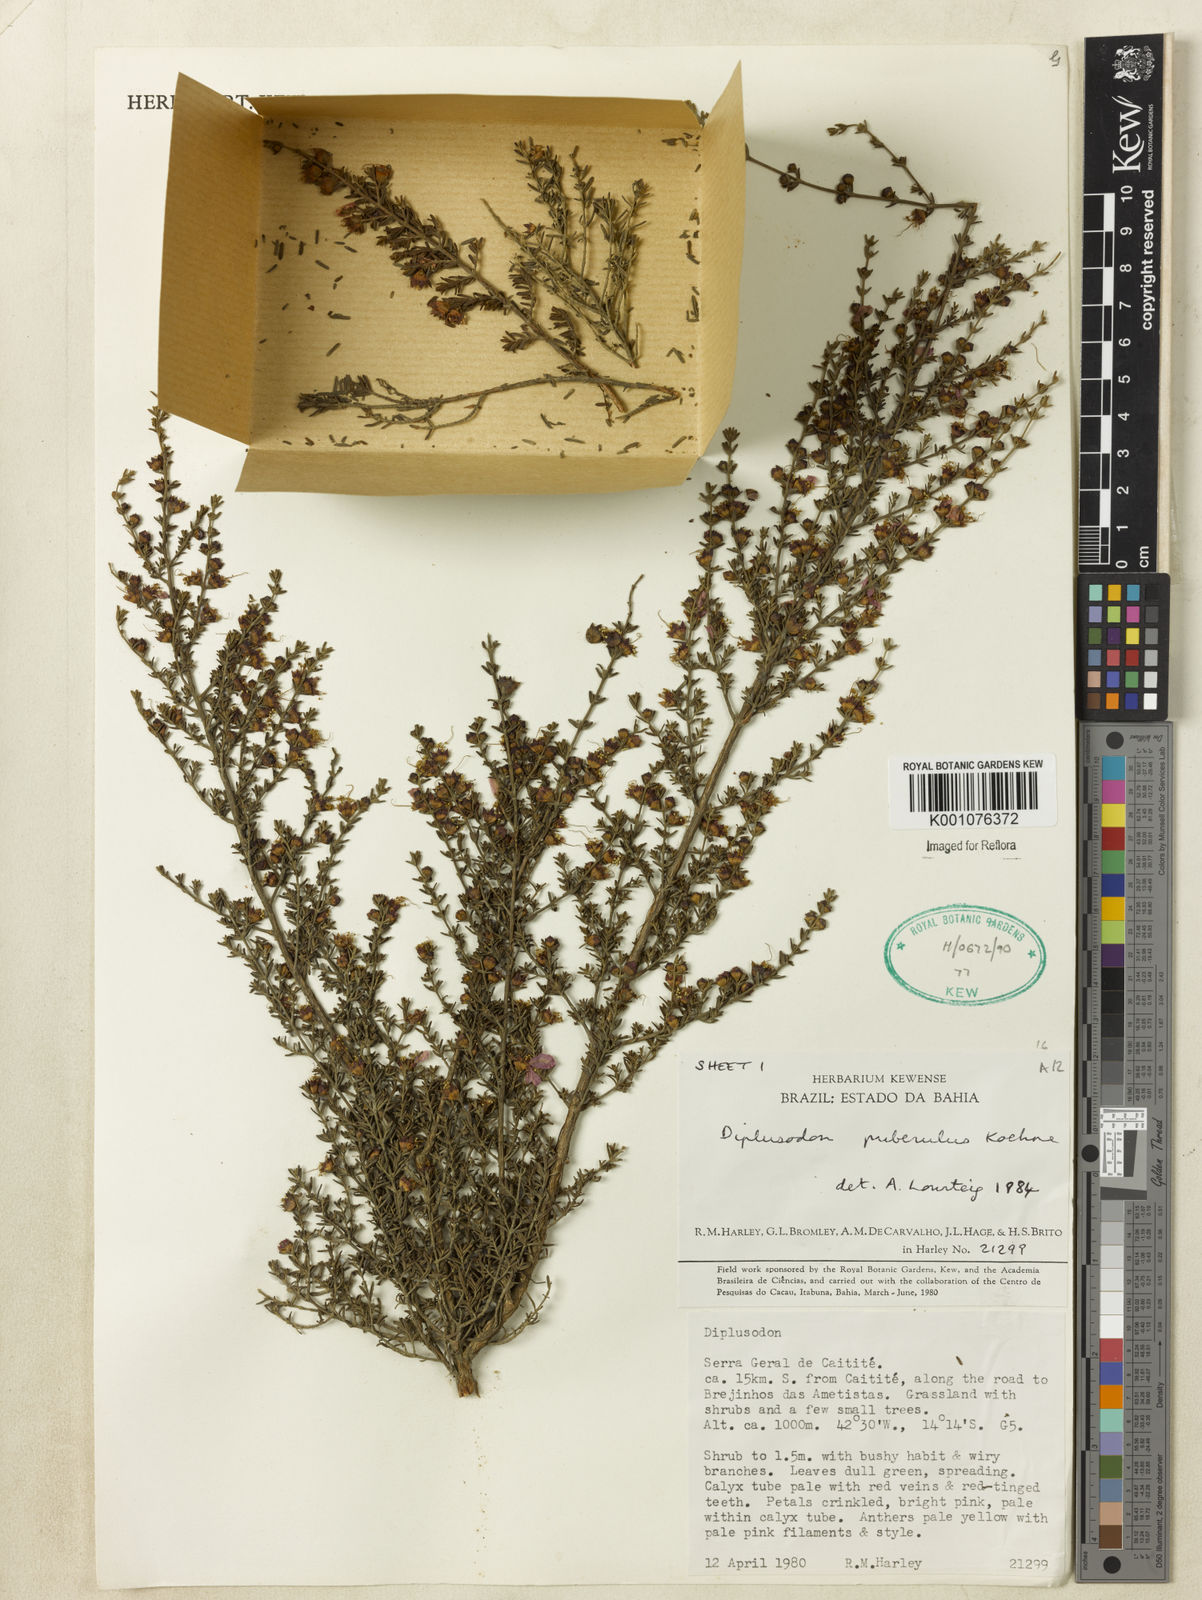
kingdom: Plantae
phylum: Tracheophyta
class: Magnoliopsida
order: Myrtales
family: Lythraceae
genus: Diplusodon
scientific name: Diplusodon puberulus
